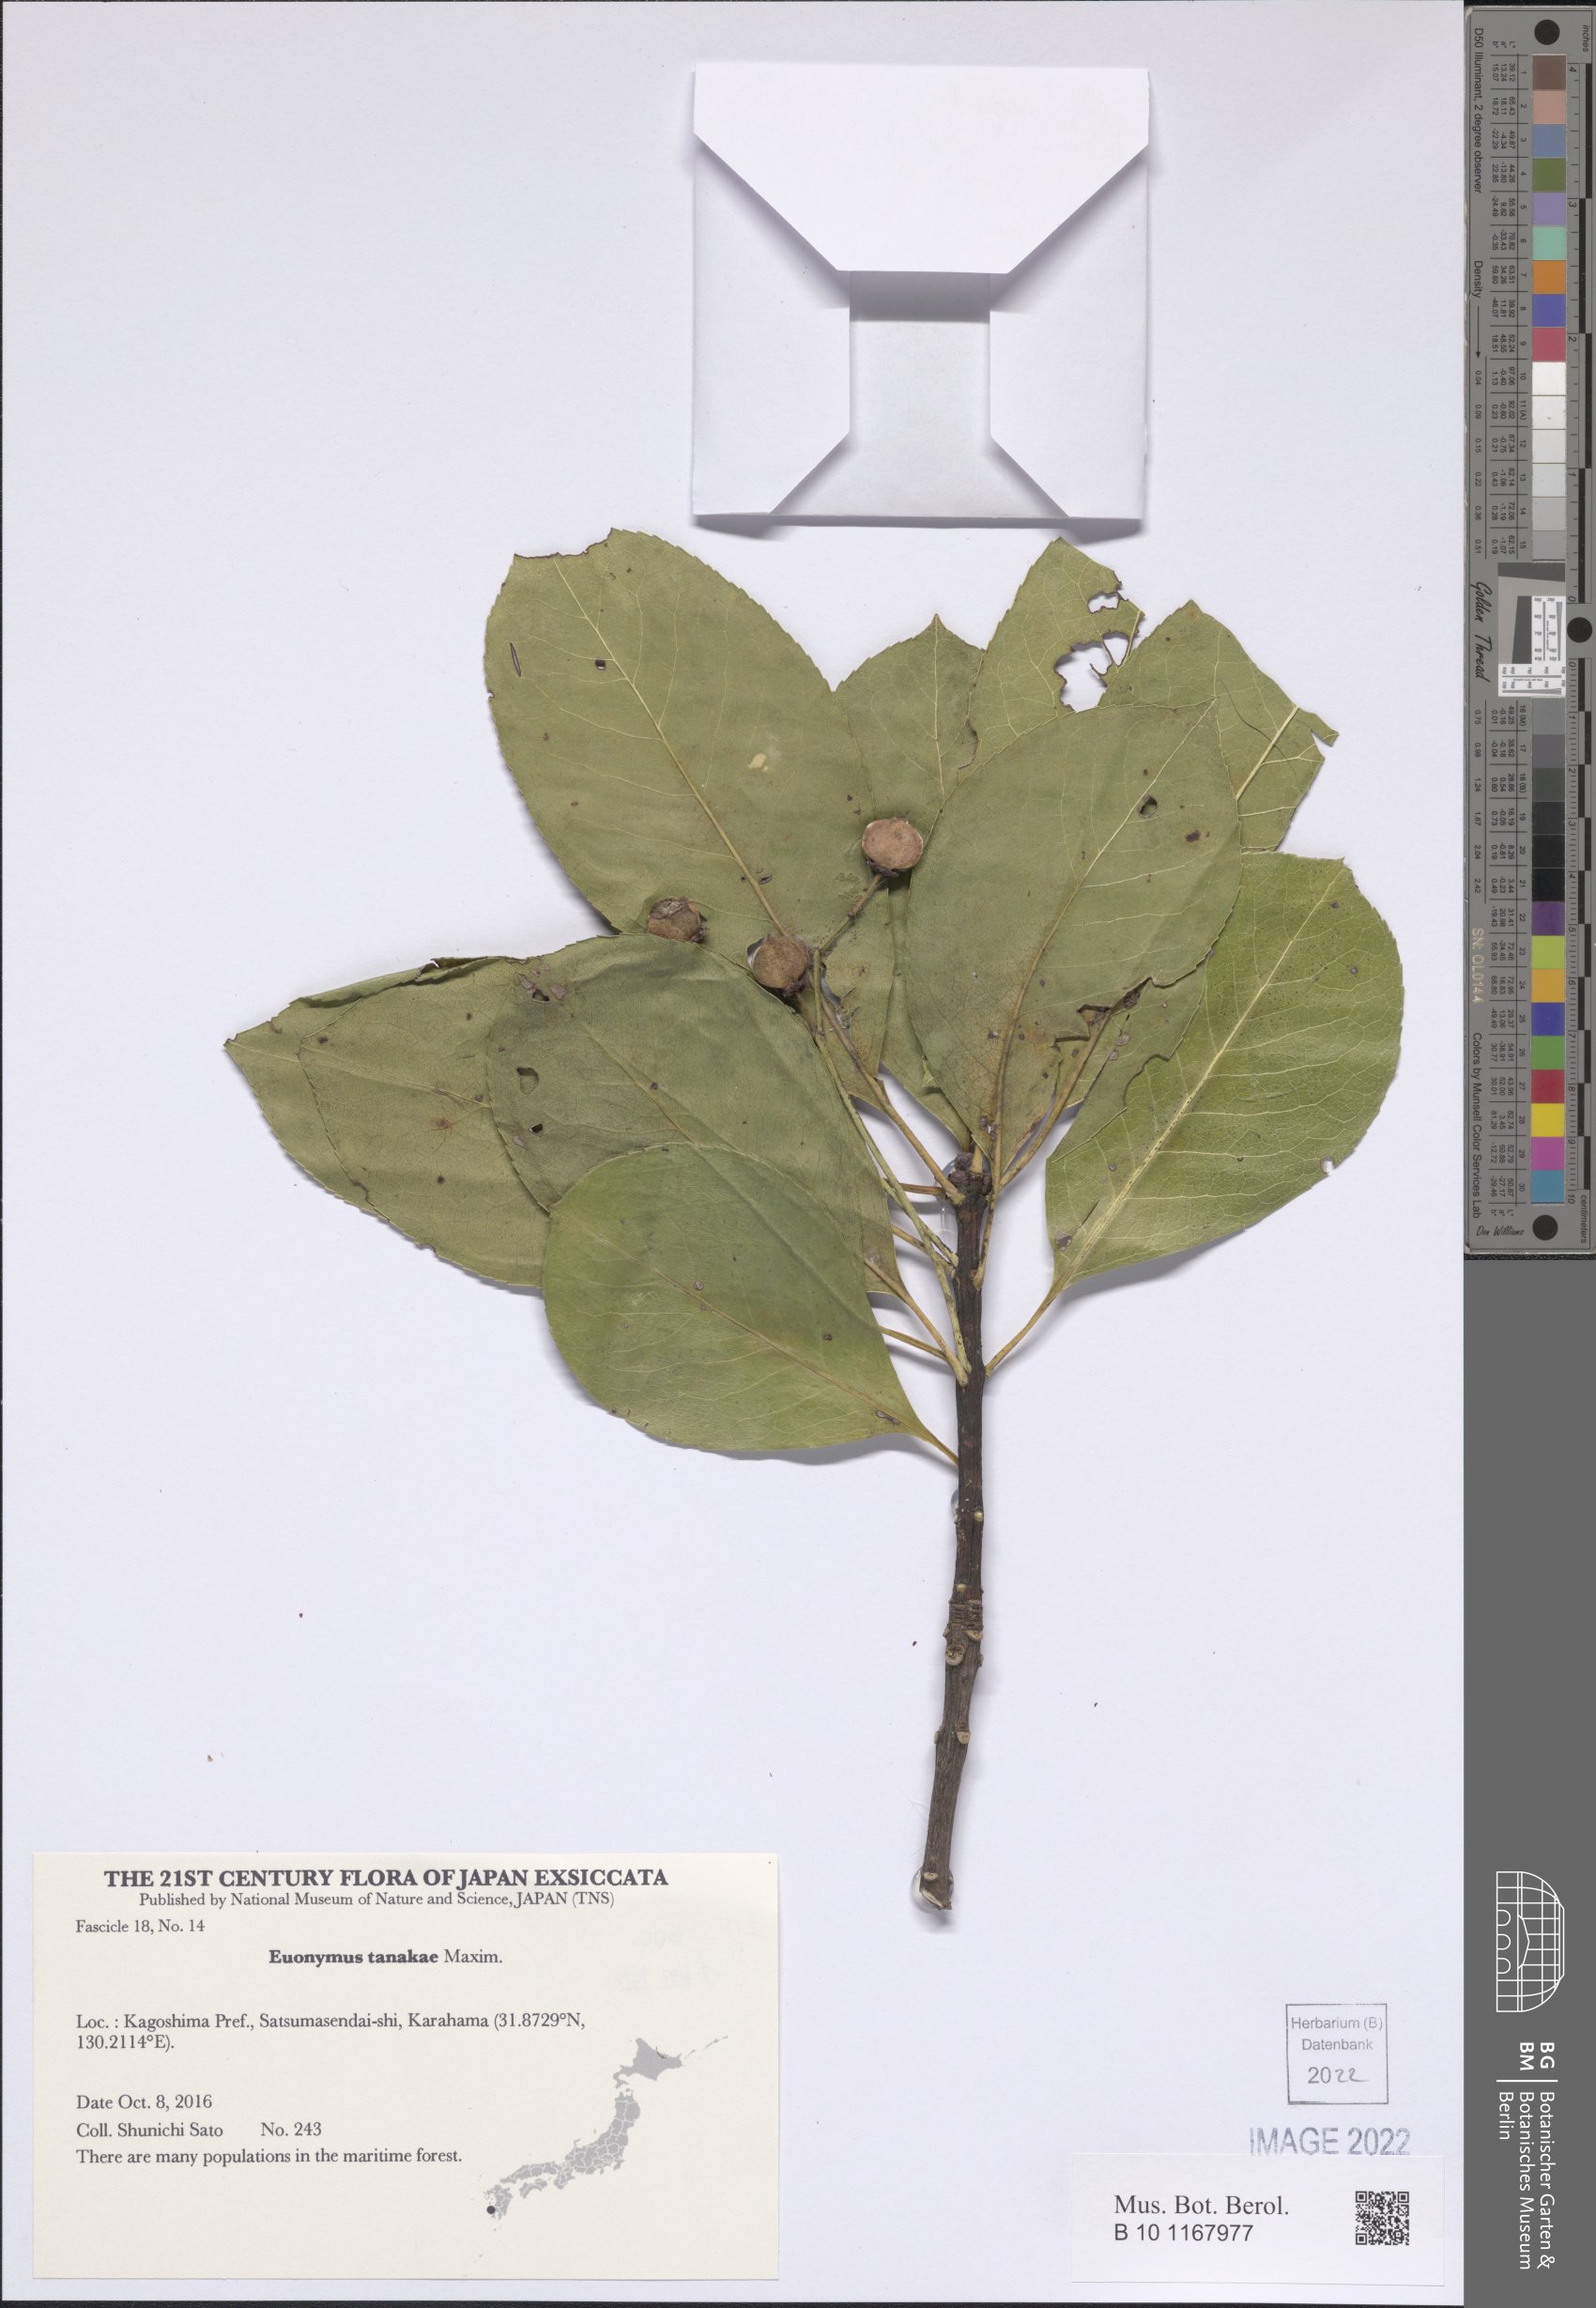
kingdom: Plantae
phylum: Tracheophyta
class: Magnoliopsida
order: Celastrales
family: Celastraceae
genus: Euonymus
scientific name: Euonymus carnosus
